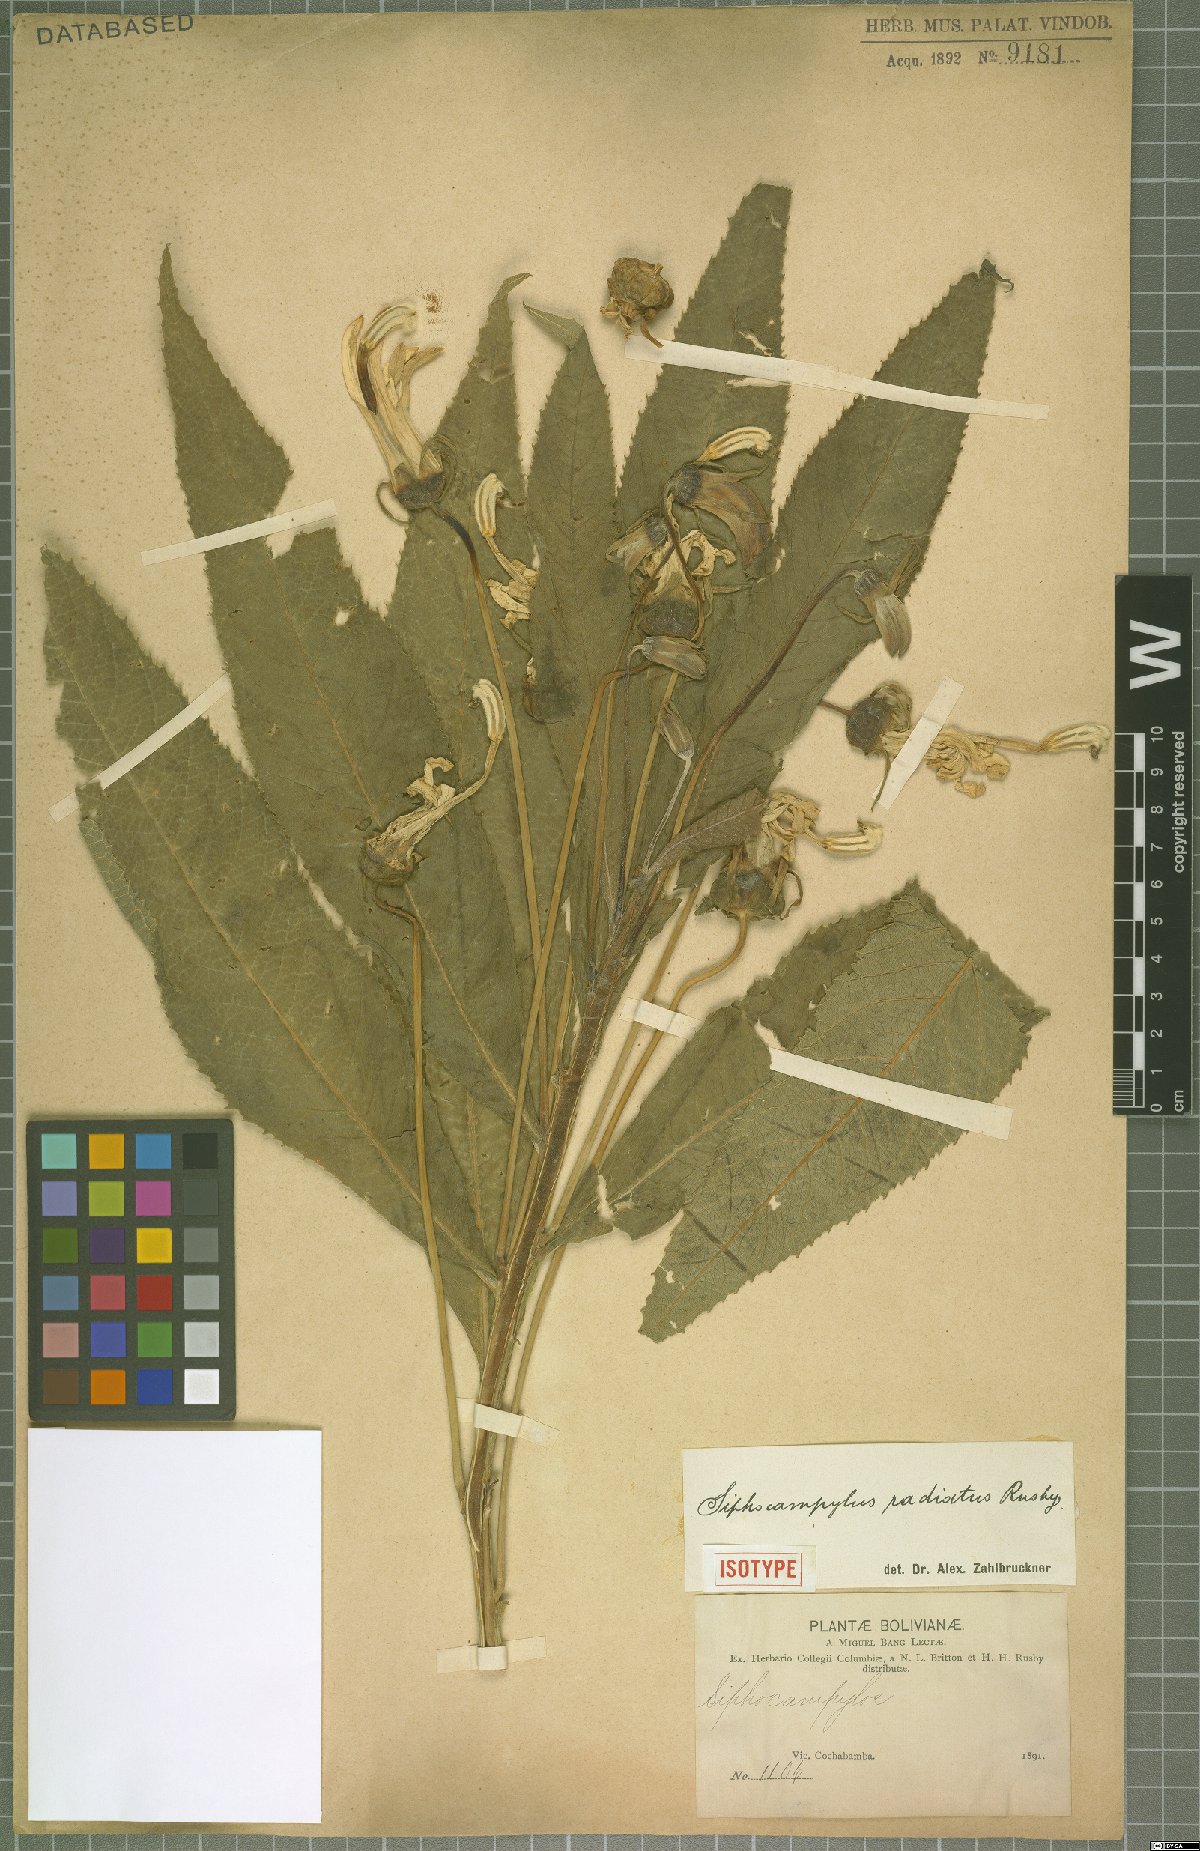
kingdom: Plantae
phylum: Tracheophyta
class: Magnoliopsida
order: Asterales
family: Campanulaceae
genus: Siphocampylus
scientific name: Siphocampylus radiatus
